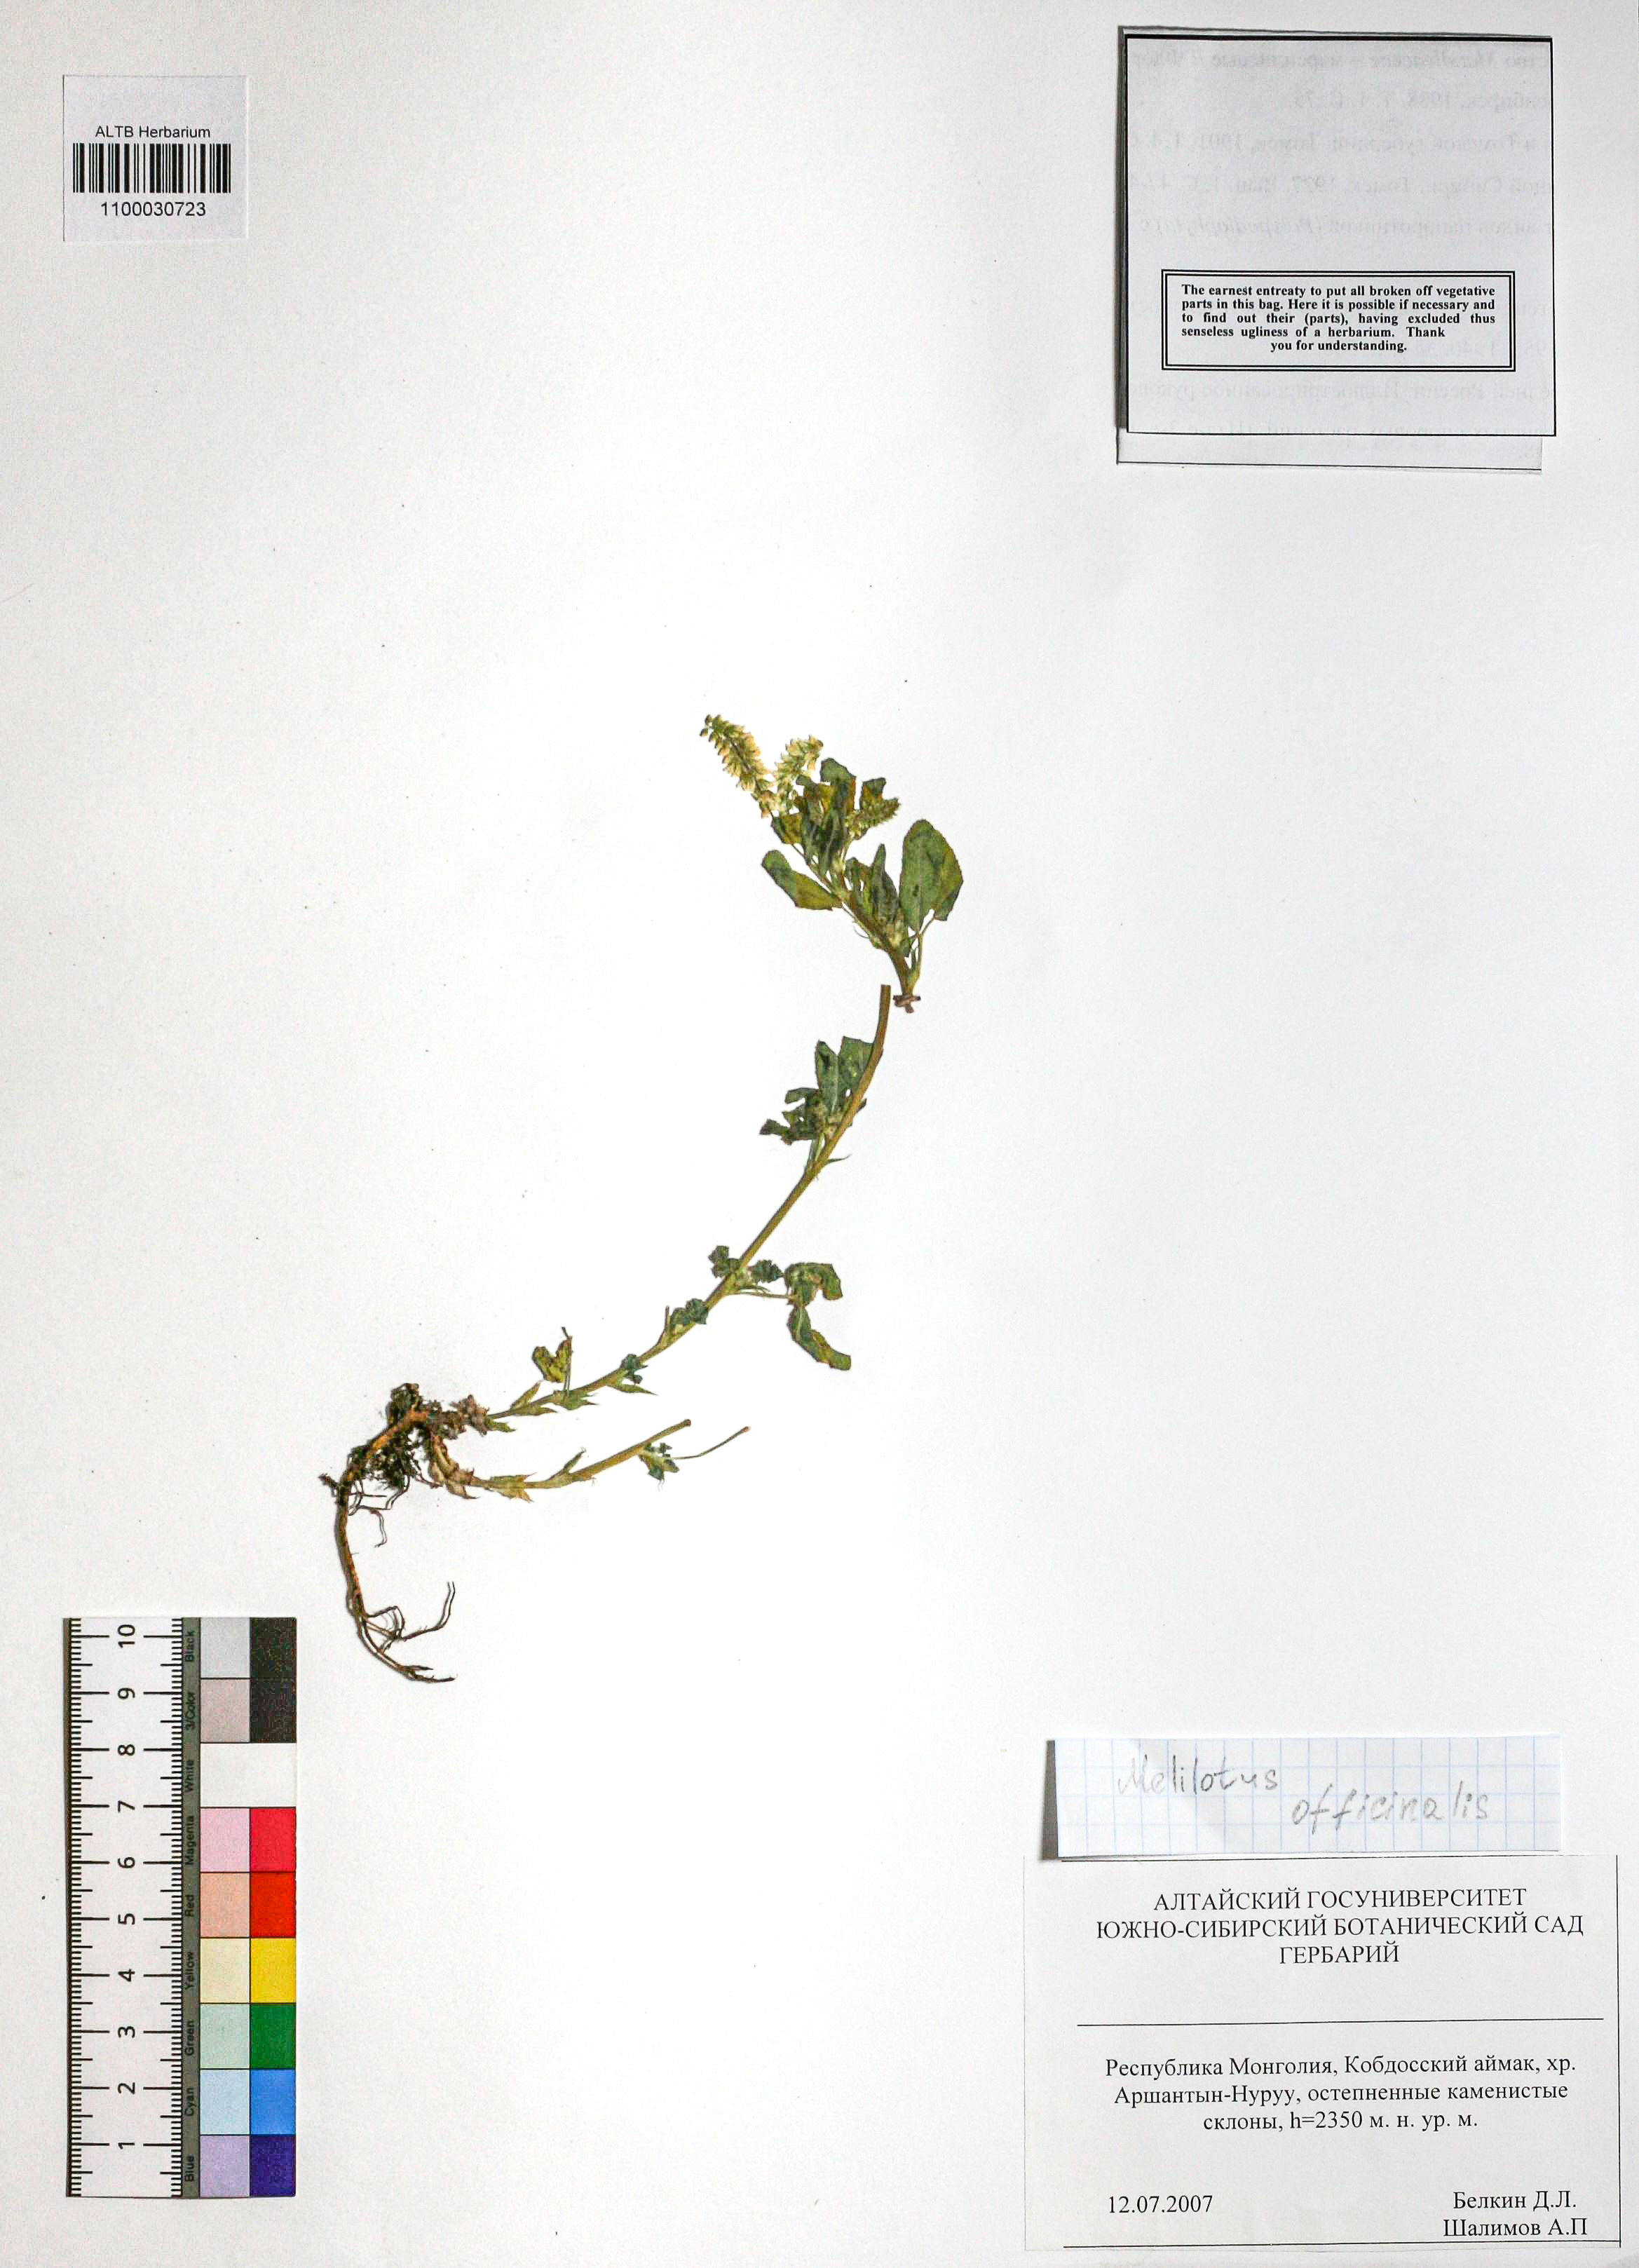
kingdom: Plantae
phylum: Tracheophyta
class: Magnoliopsida
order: Fabales
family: Fabaceae
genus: Melilotus
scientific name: Melilotus officinalis
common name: Sweetclover
